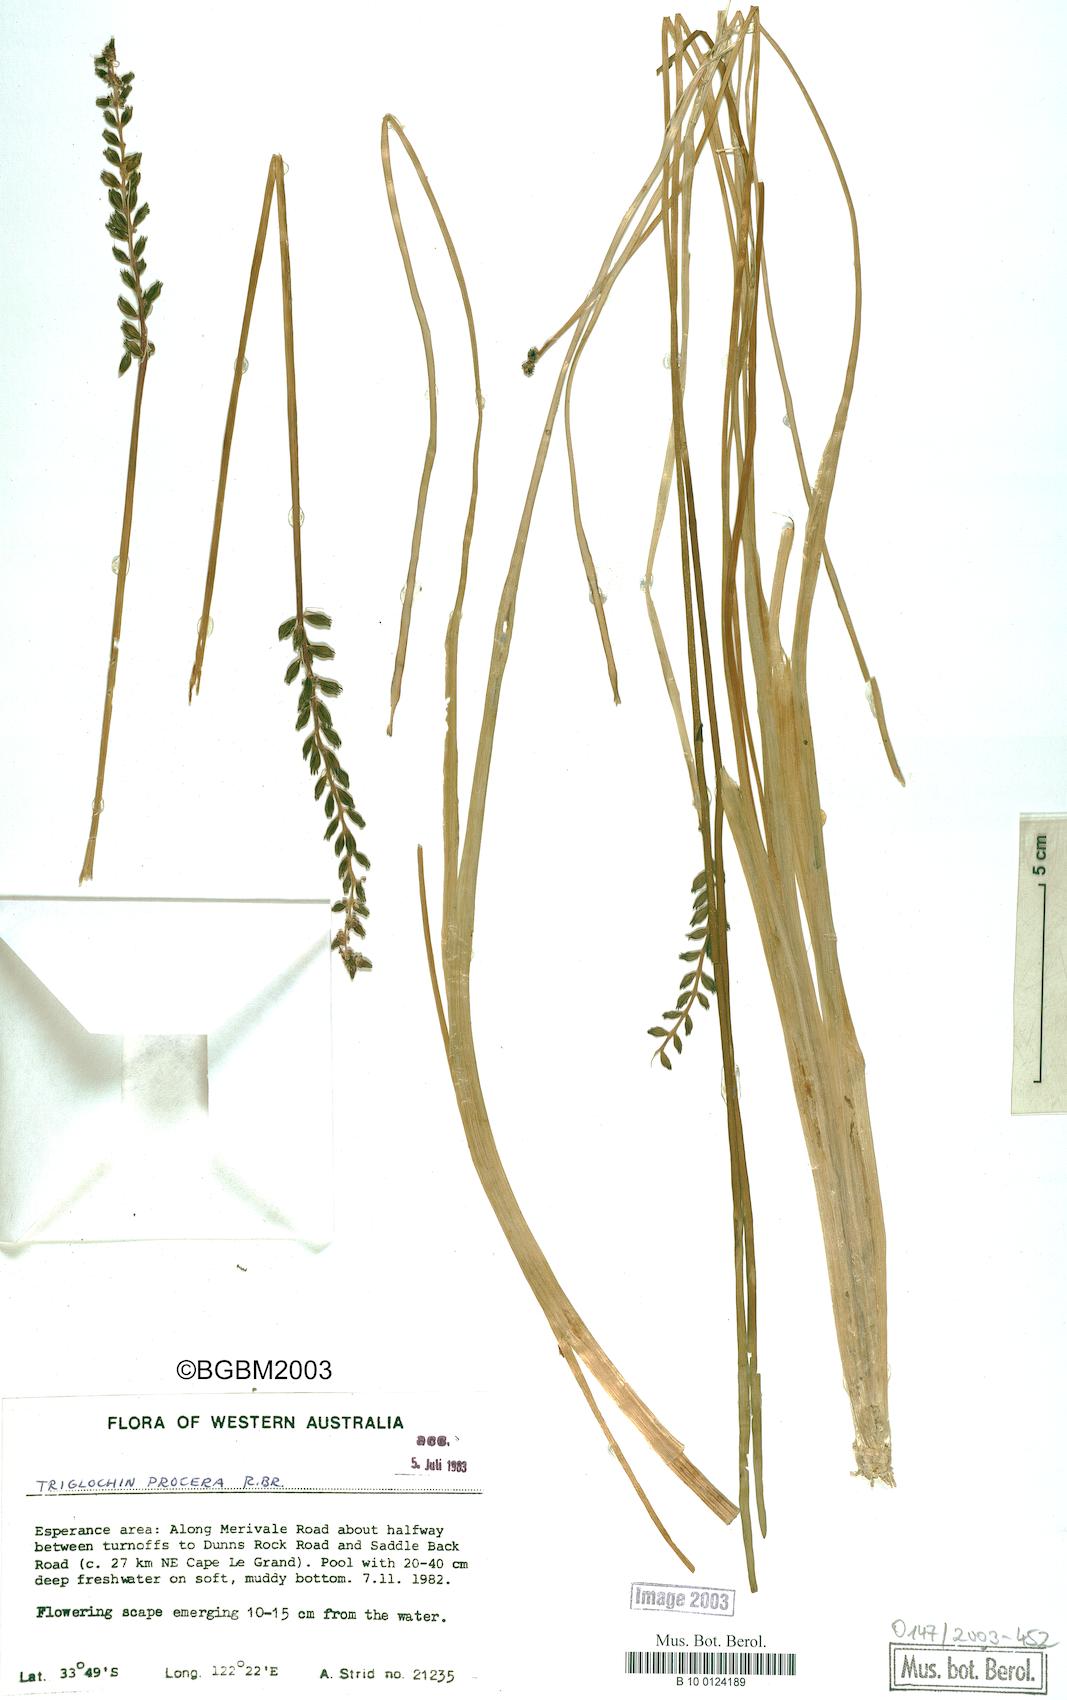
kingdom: Plantae
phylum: Tracheophyta
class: Liliopsida
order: Alismatales
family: Juncaginaceae
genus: Cycnogeton
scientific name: Cycnogeton procerum
